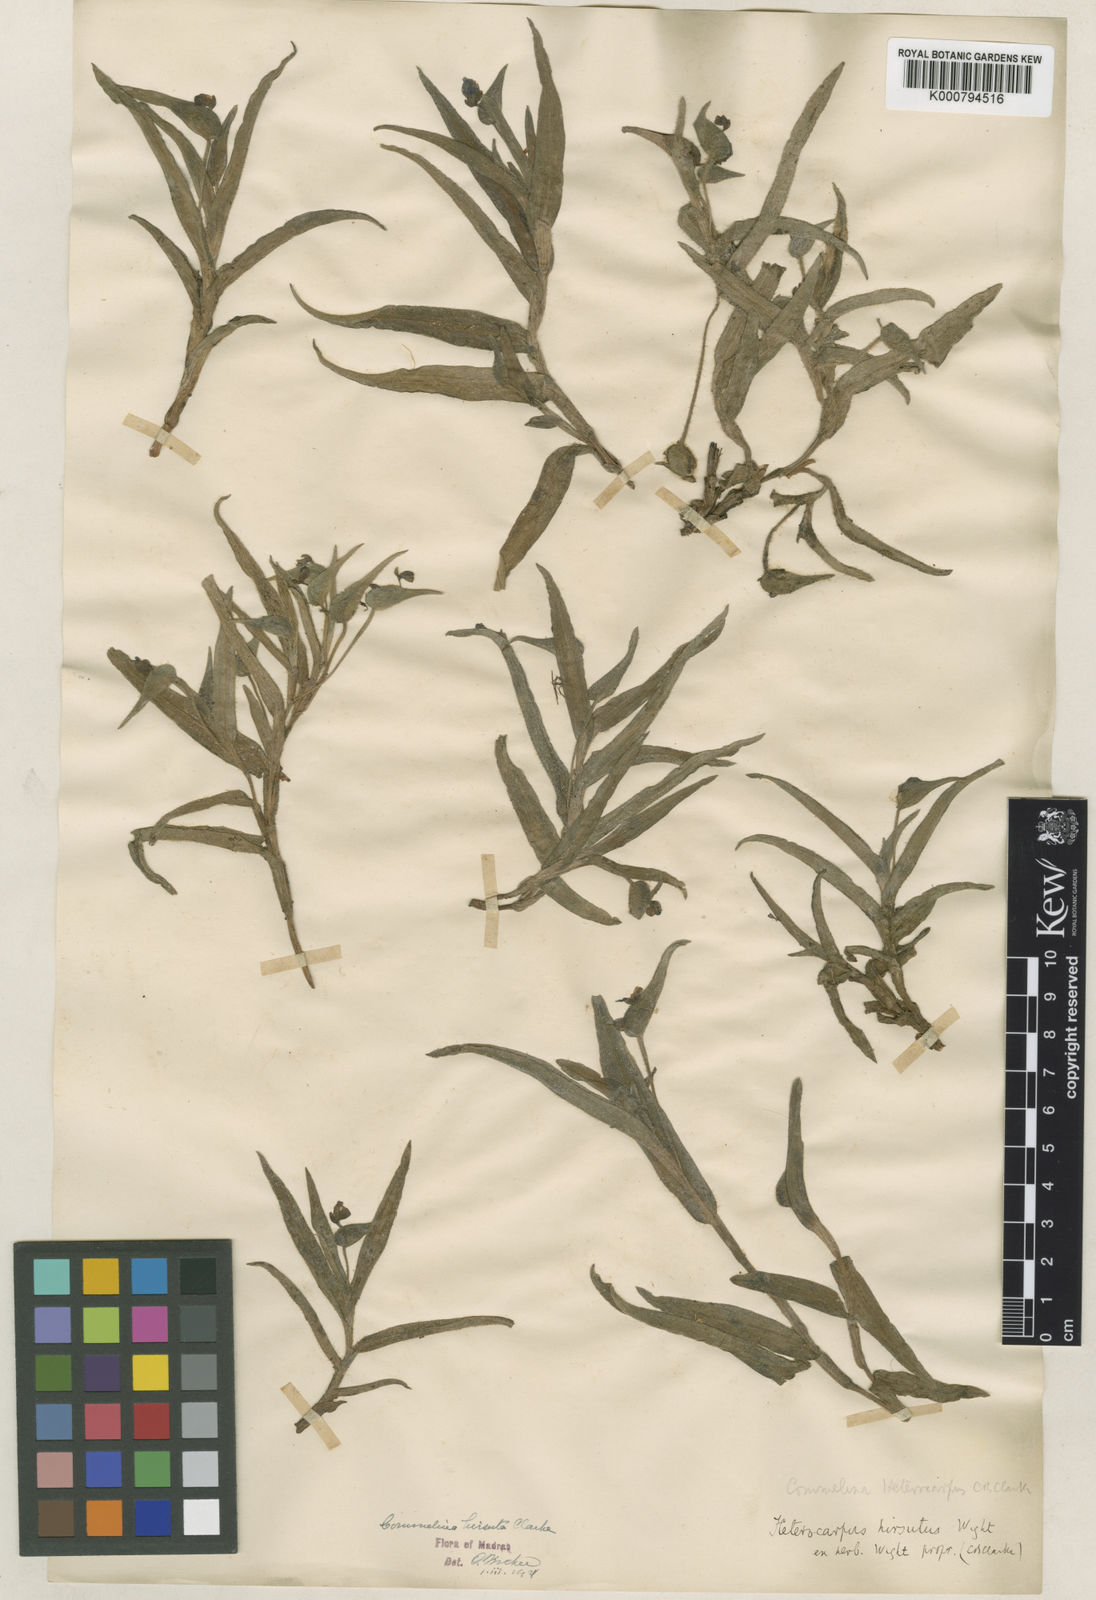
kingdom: Plantae
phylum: Tracheophyta
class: Liliopsida
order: Commelinales
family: Commelinaceae
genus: Commelina
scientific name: Commelina
